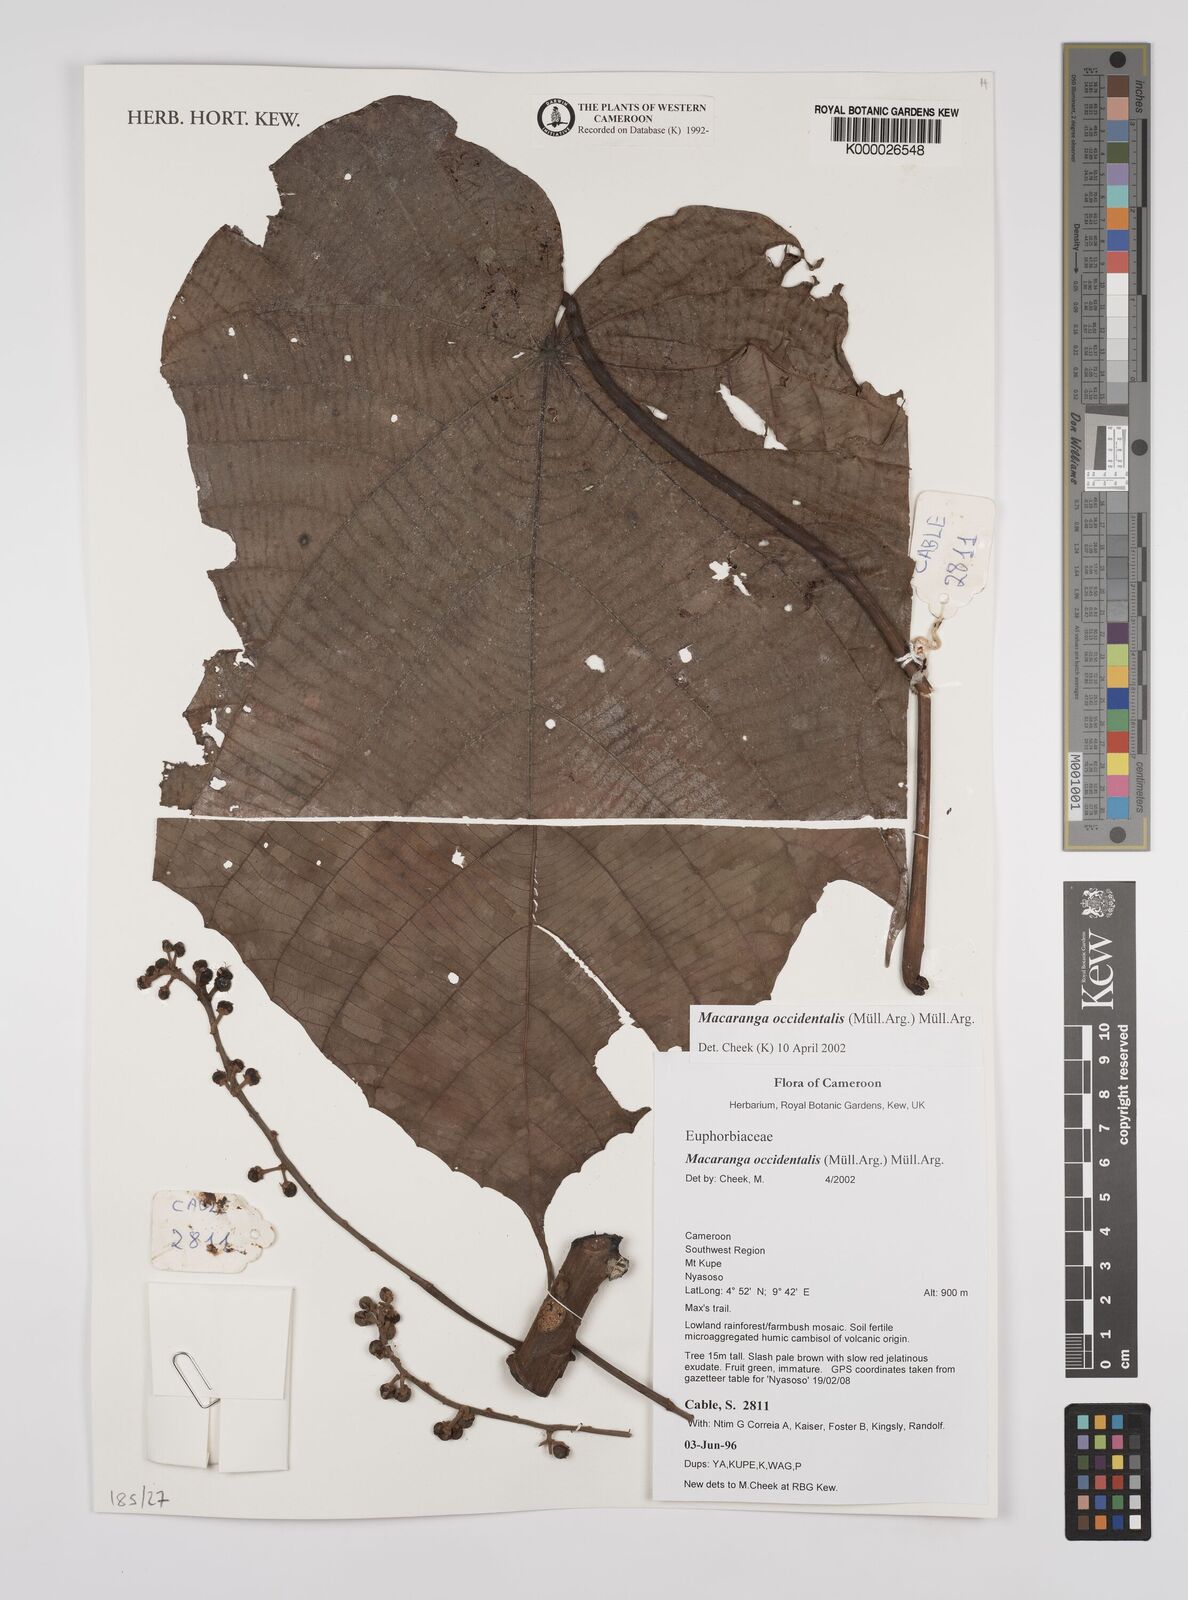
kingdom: Plantae
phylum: Tracheophyta
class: Magnoliopsida
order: Malpighiales
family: Euphorbiaceae
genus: Macaranga
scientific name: Macaranga
